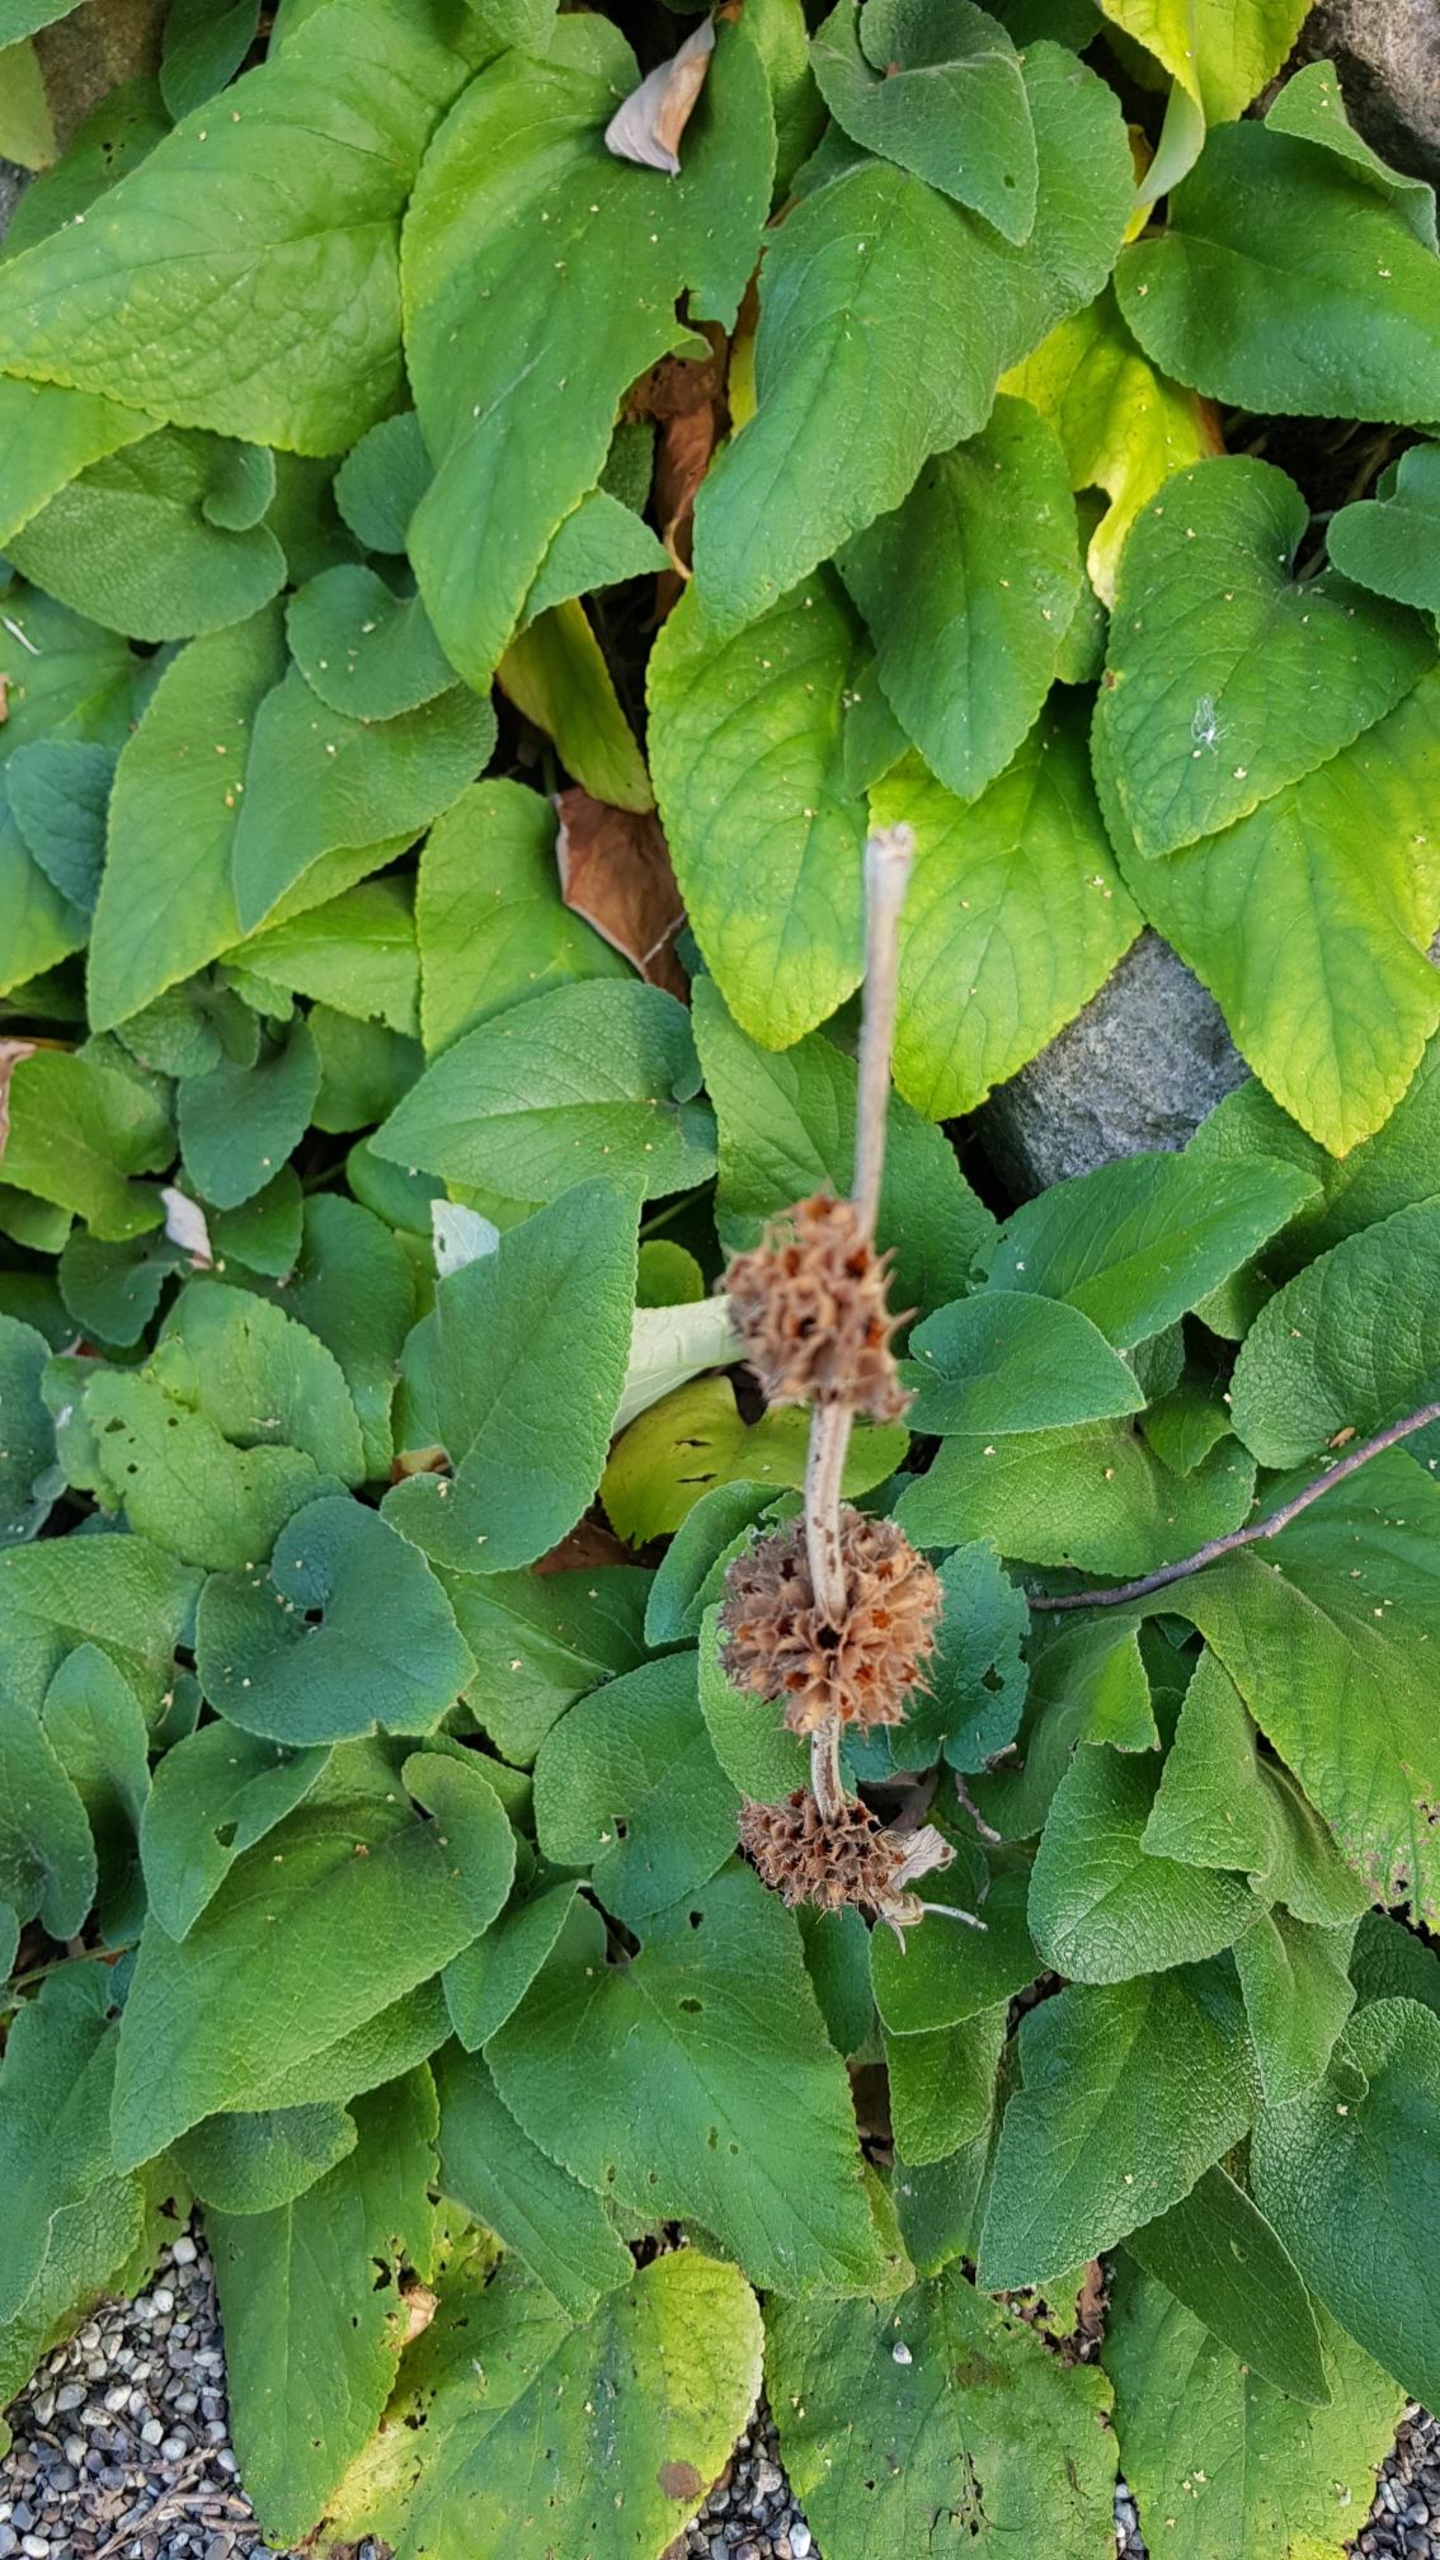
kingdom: Plantae
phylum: Tracheophyta
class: Magnoliopsida
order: Lamiales
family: Lamiaceae
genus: Phlomis
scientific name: Phlomis
